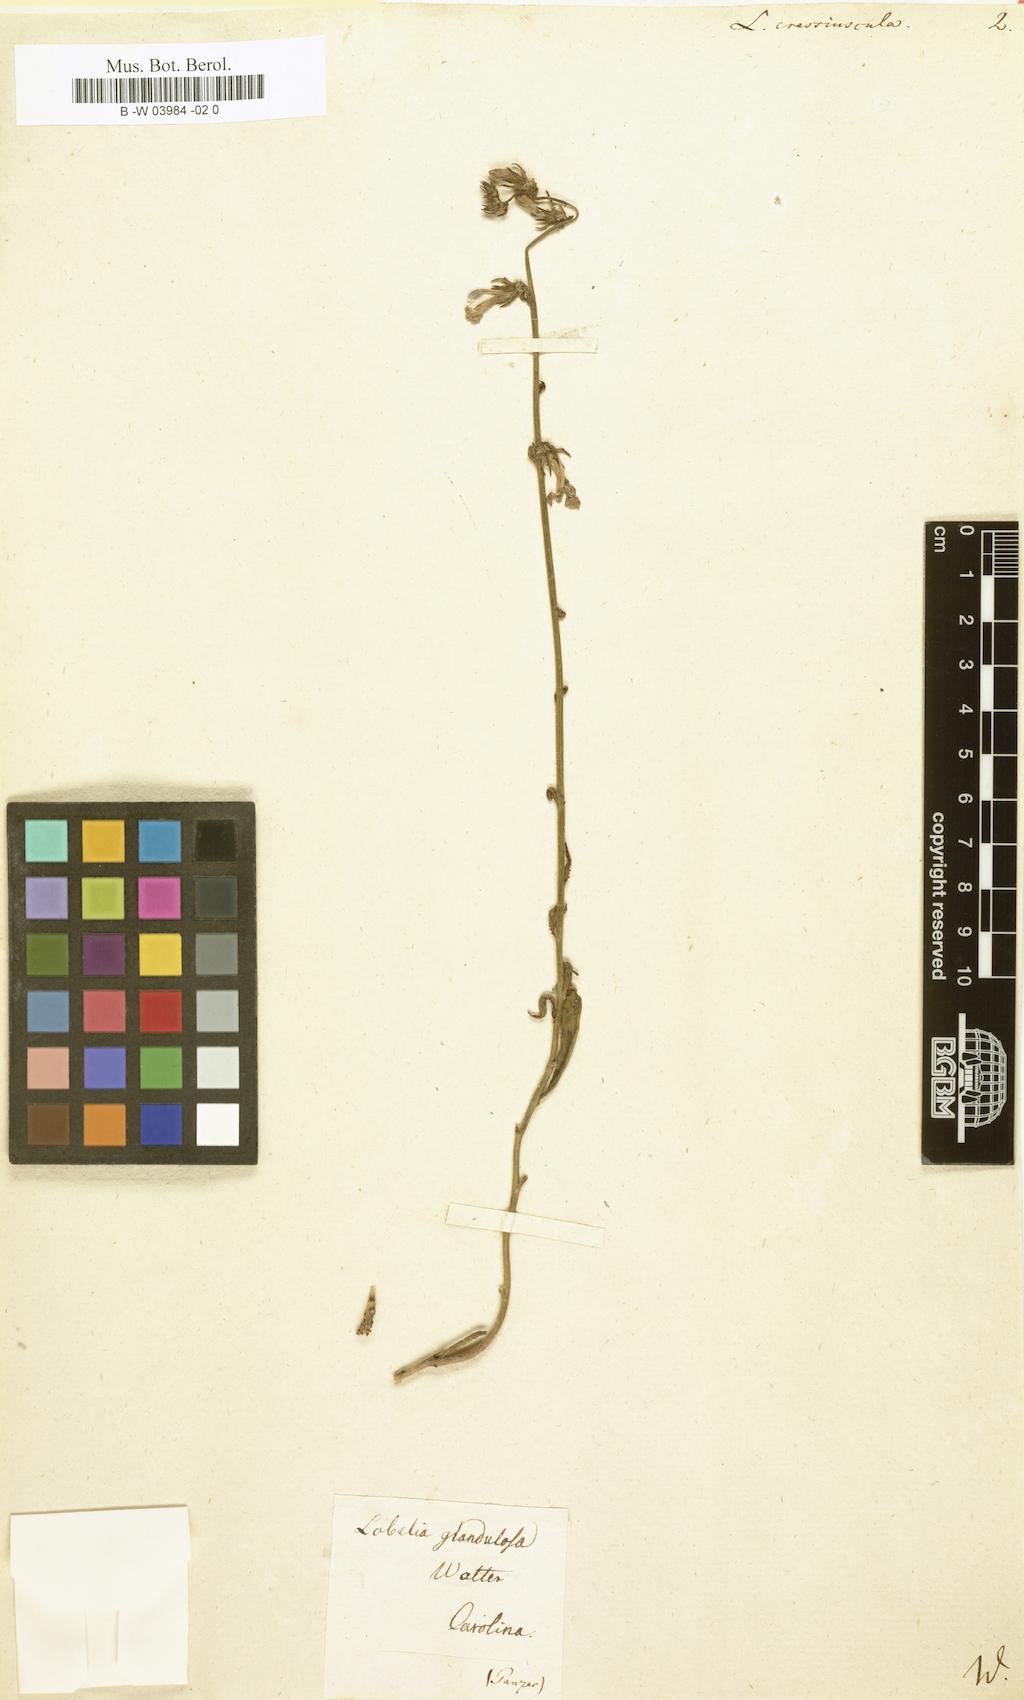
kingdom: Plantae
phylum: Tracheophyta
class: Magnoliopsida
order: Asterales
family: Campanulaceae
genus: Lobelia
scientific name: Lobelia glandulosa
